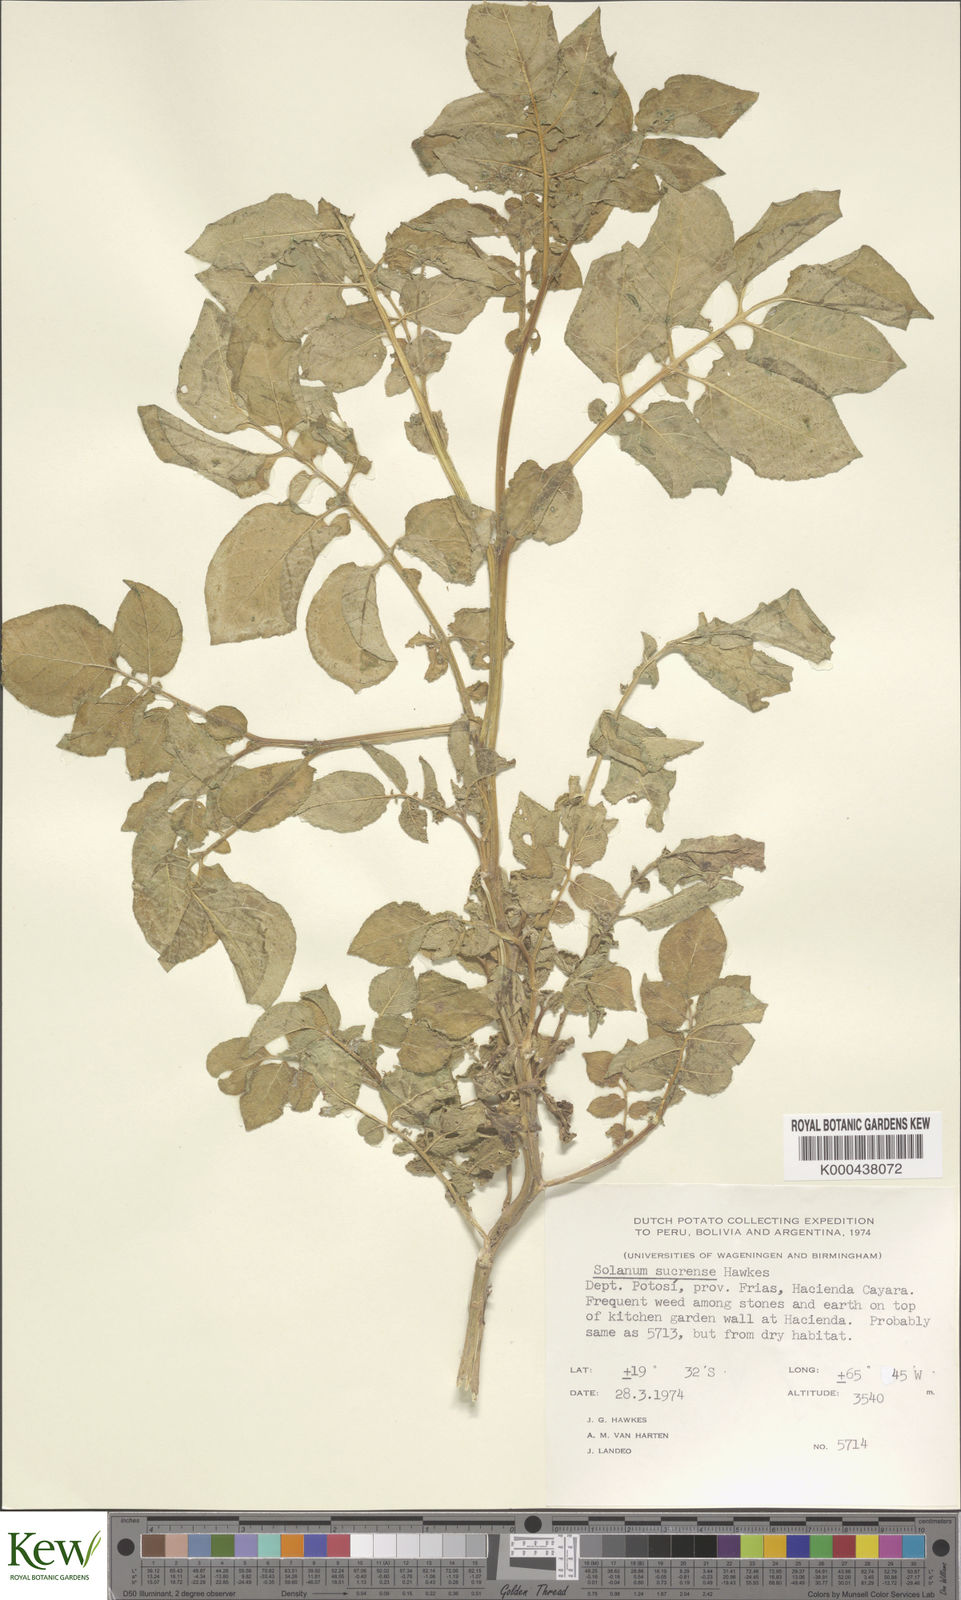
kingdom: Plantae
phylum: Tracheophyta
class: Magnoliopsida
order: Solanales
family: Solanaceae
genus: Solanum
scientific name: Solanum brevicaule
